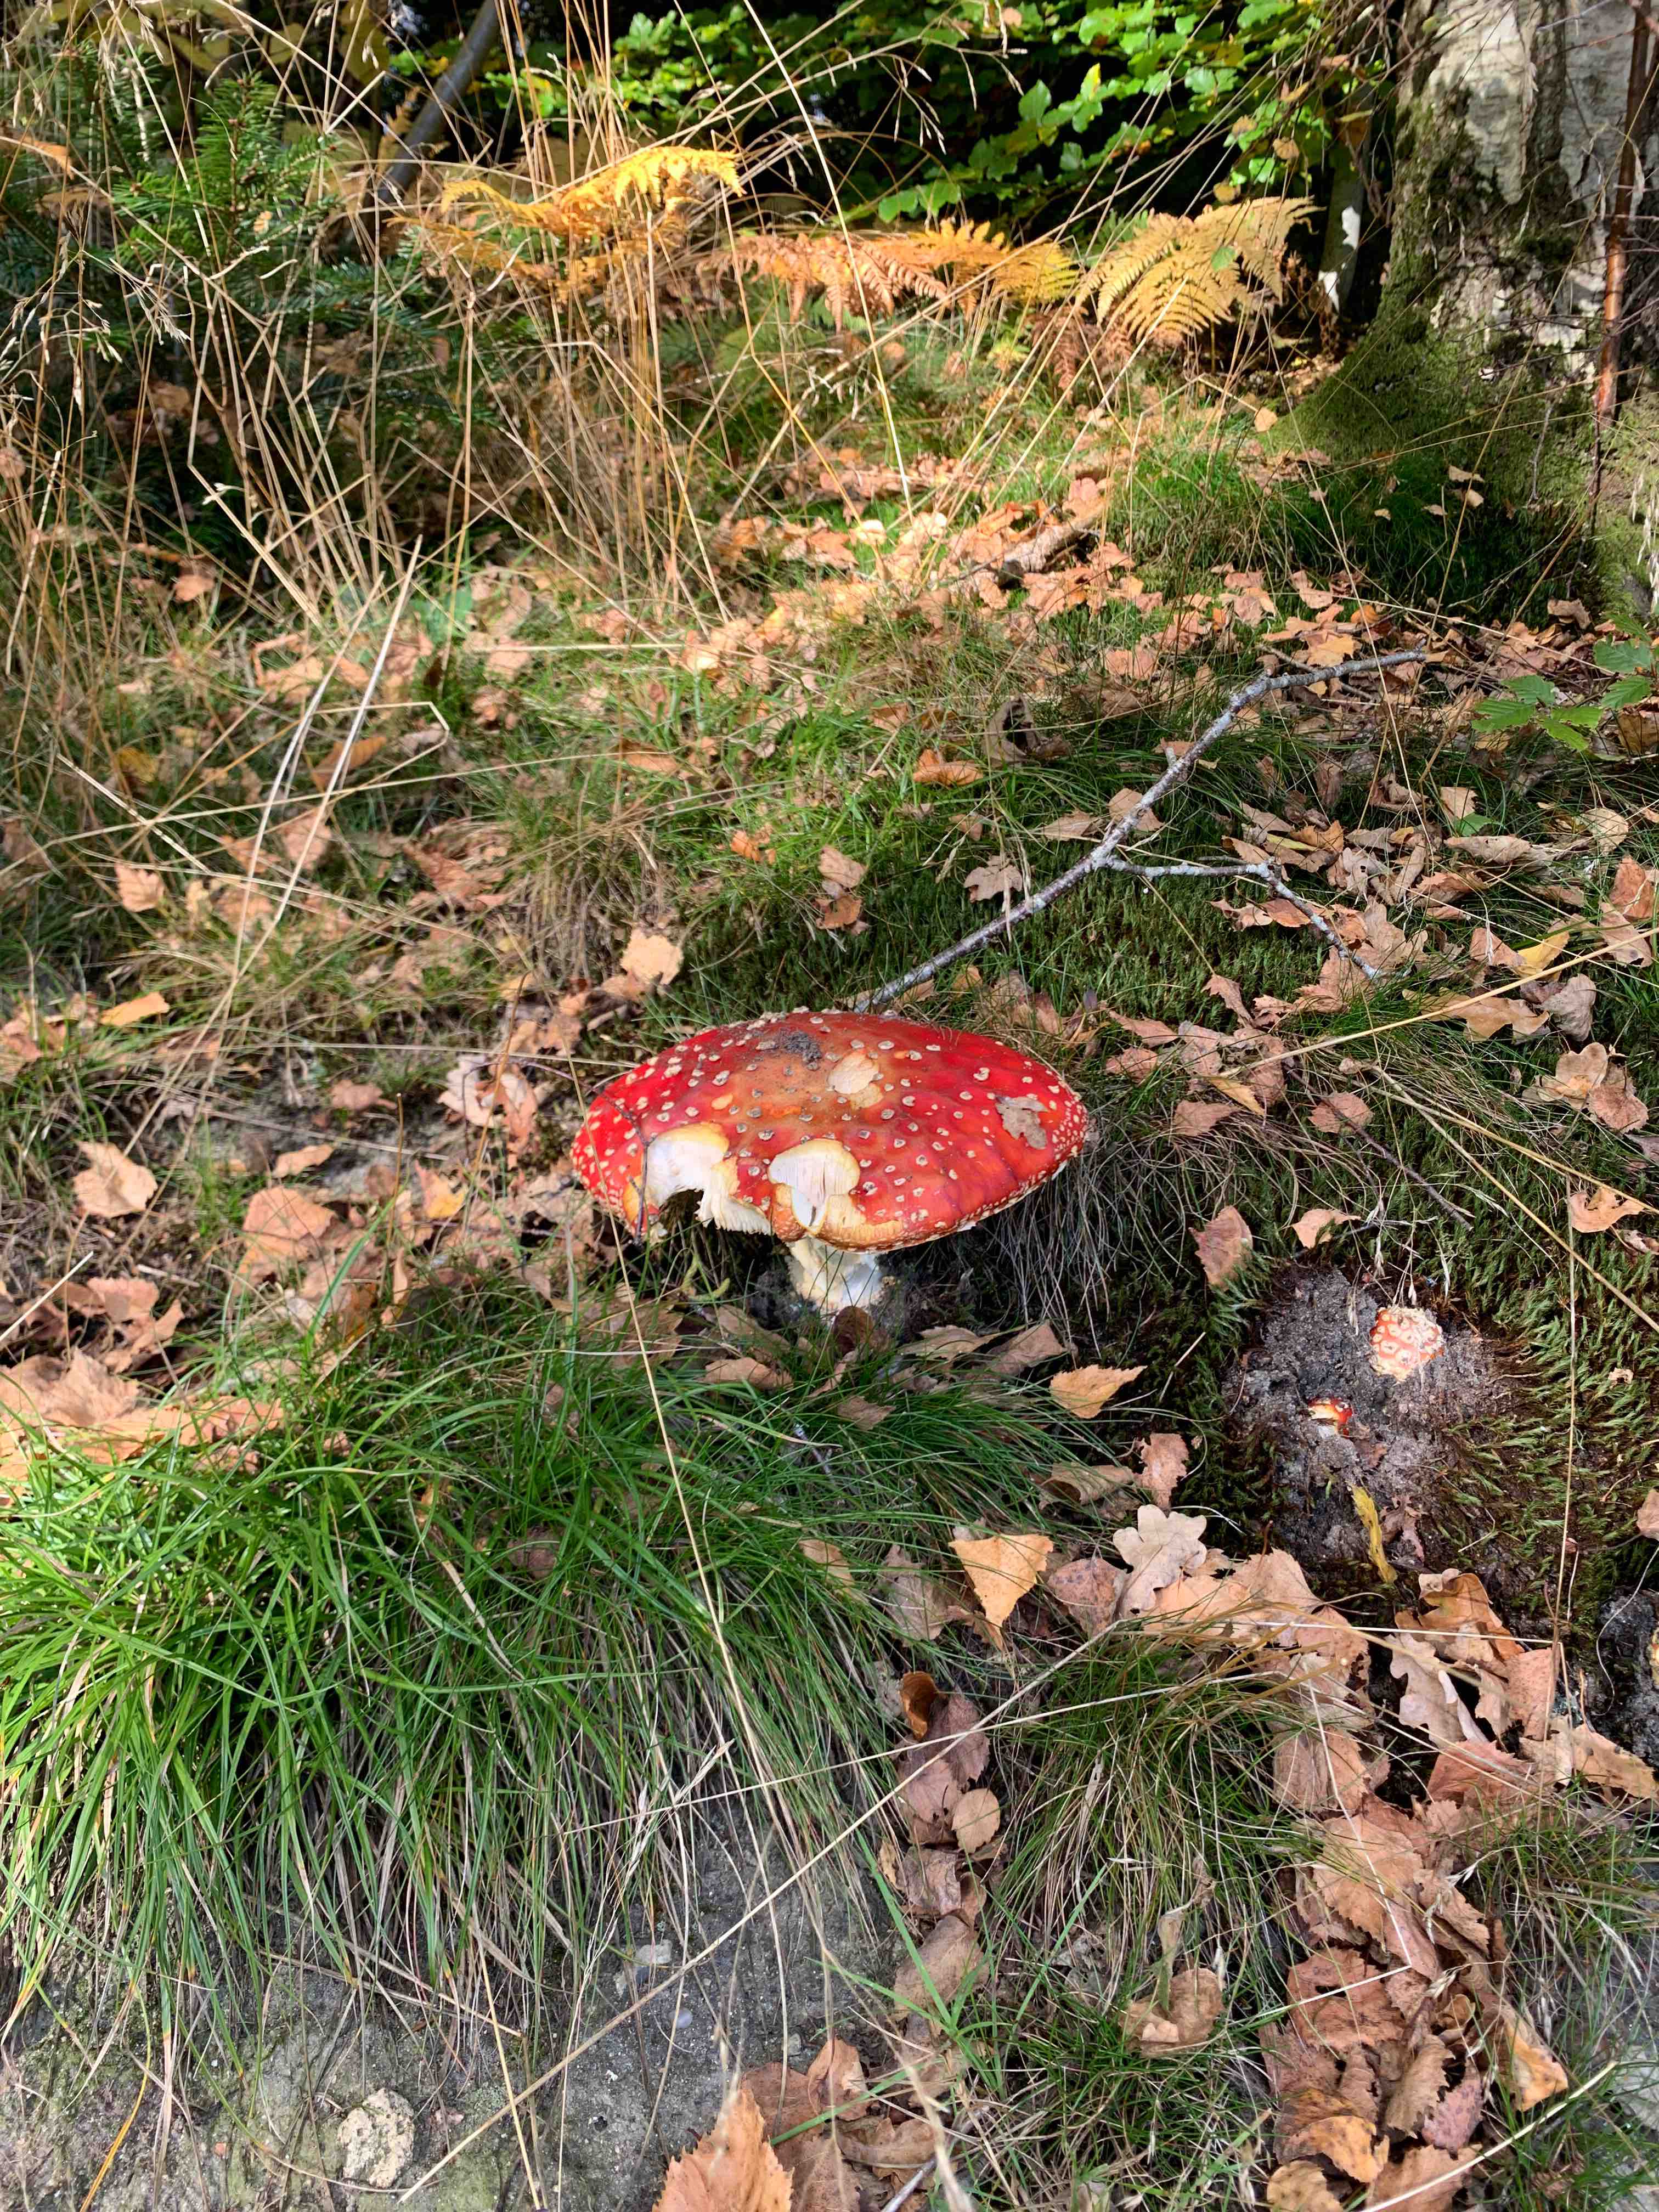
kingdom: Fungi
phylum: Basidiomycota
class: Agaricomycetes
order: Agaricales
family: Amanitaceae
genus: Amanita
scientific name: Amanita muscaria
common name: rød fluesvamp
